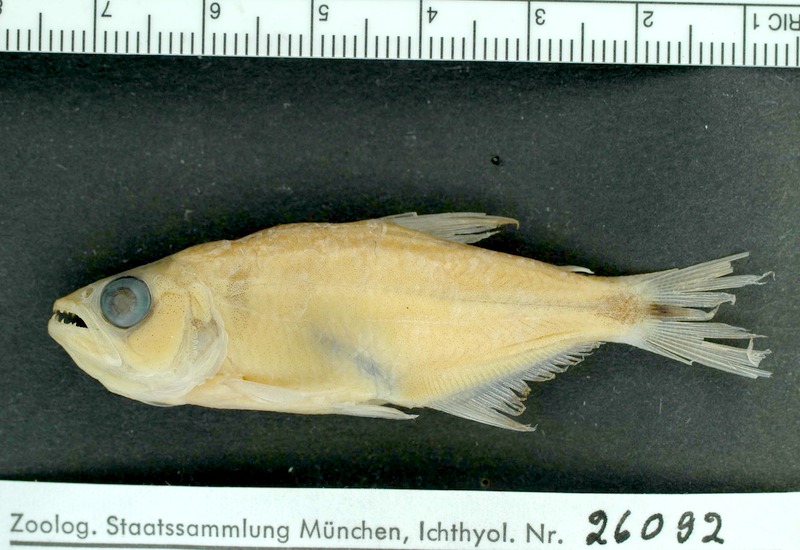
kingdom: Animalia
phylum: Chordata
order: Characiformes
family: Characidae
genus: Oligosarcus
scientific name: Oligosarcus planaltinae
